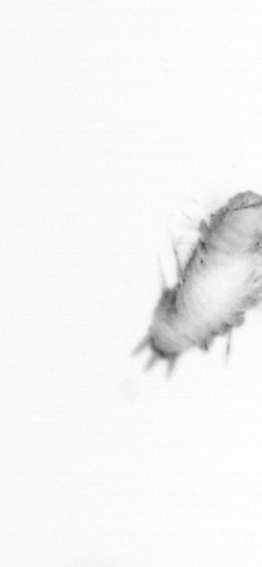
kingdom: Animalia
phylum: Annelida
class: Polychaeta
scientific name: Polychaeta
